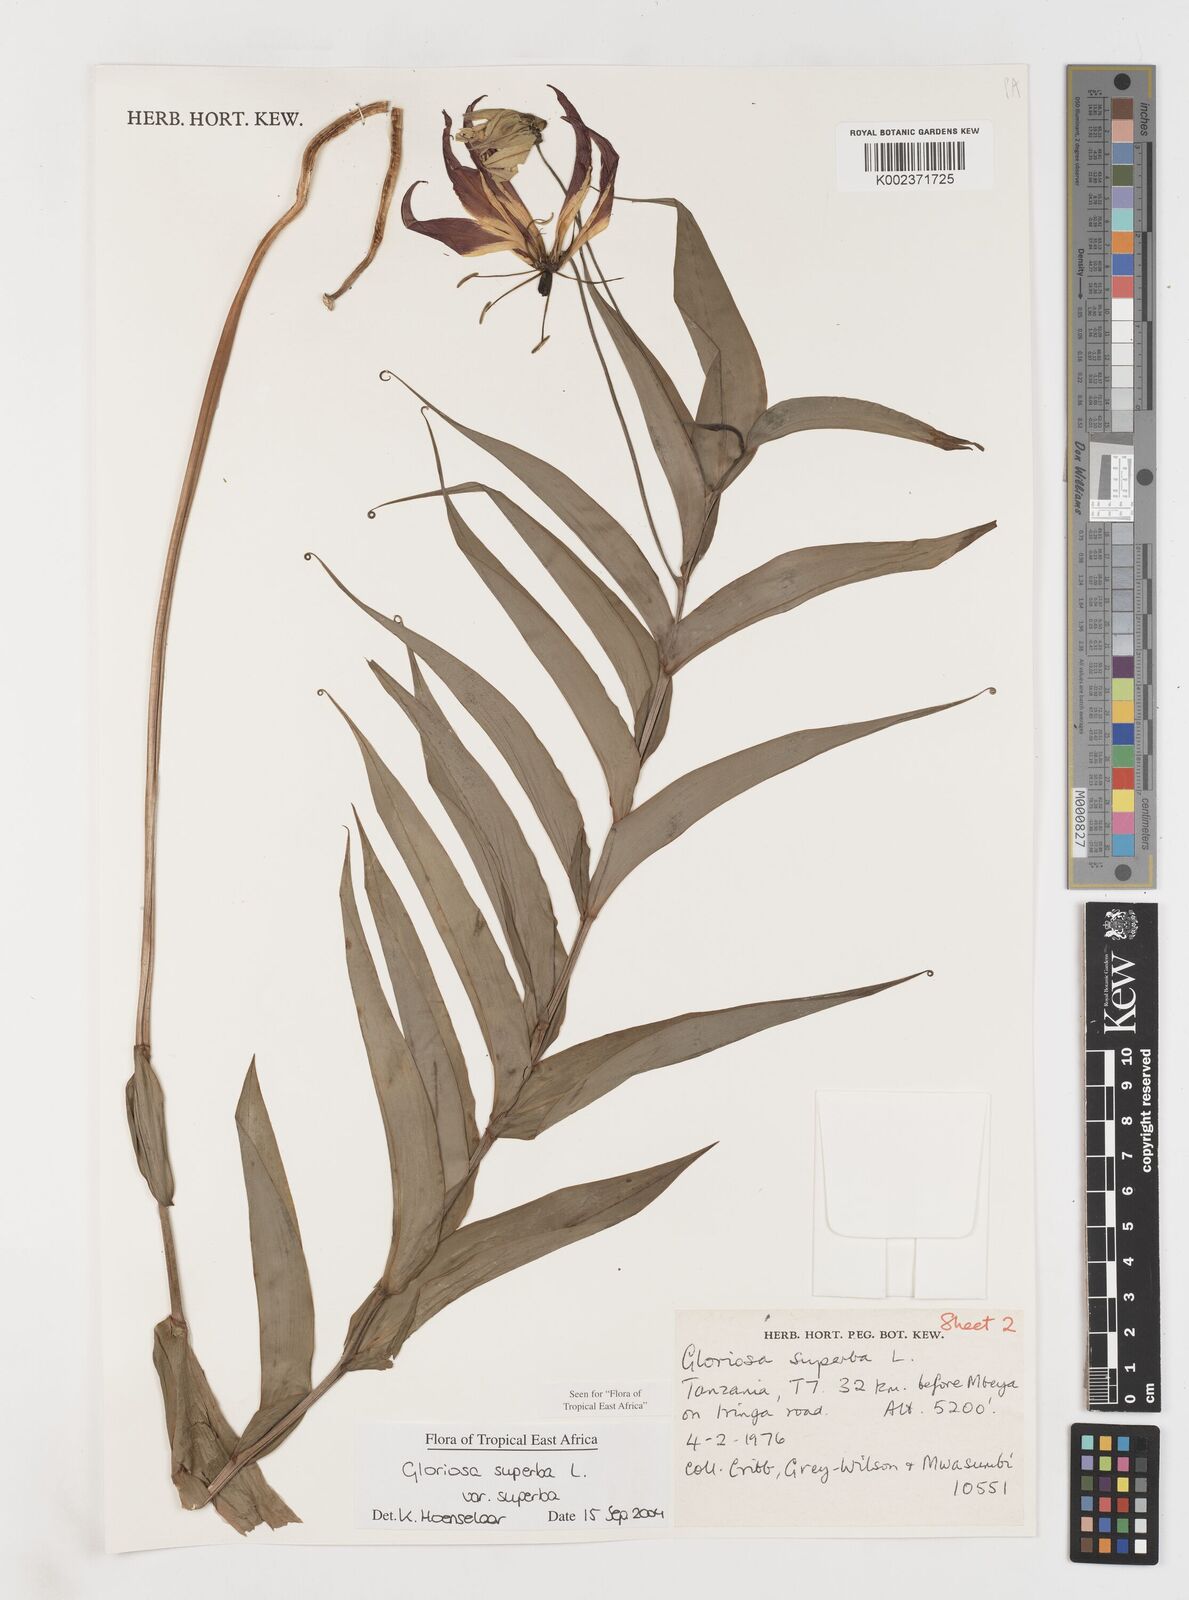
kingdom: Plantae
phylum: Tracheophyta
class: Liliopsida
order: Liliales
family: Colchicaceae
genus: Gloriosa
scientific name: Gloriosa simplex
